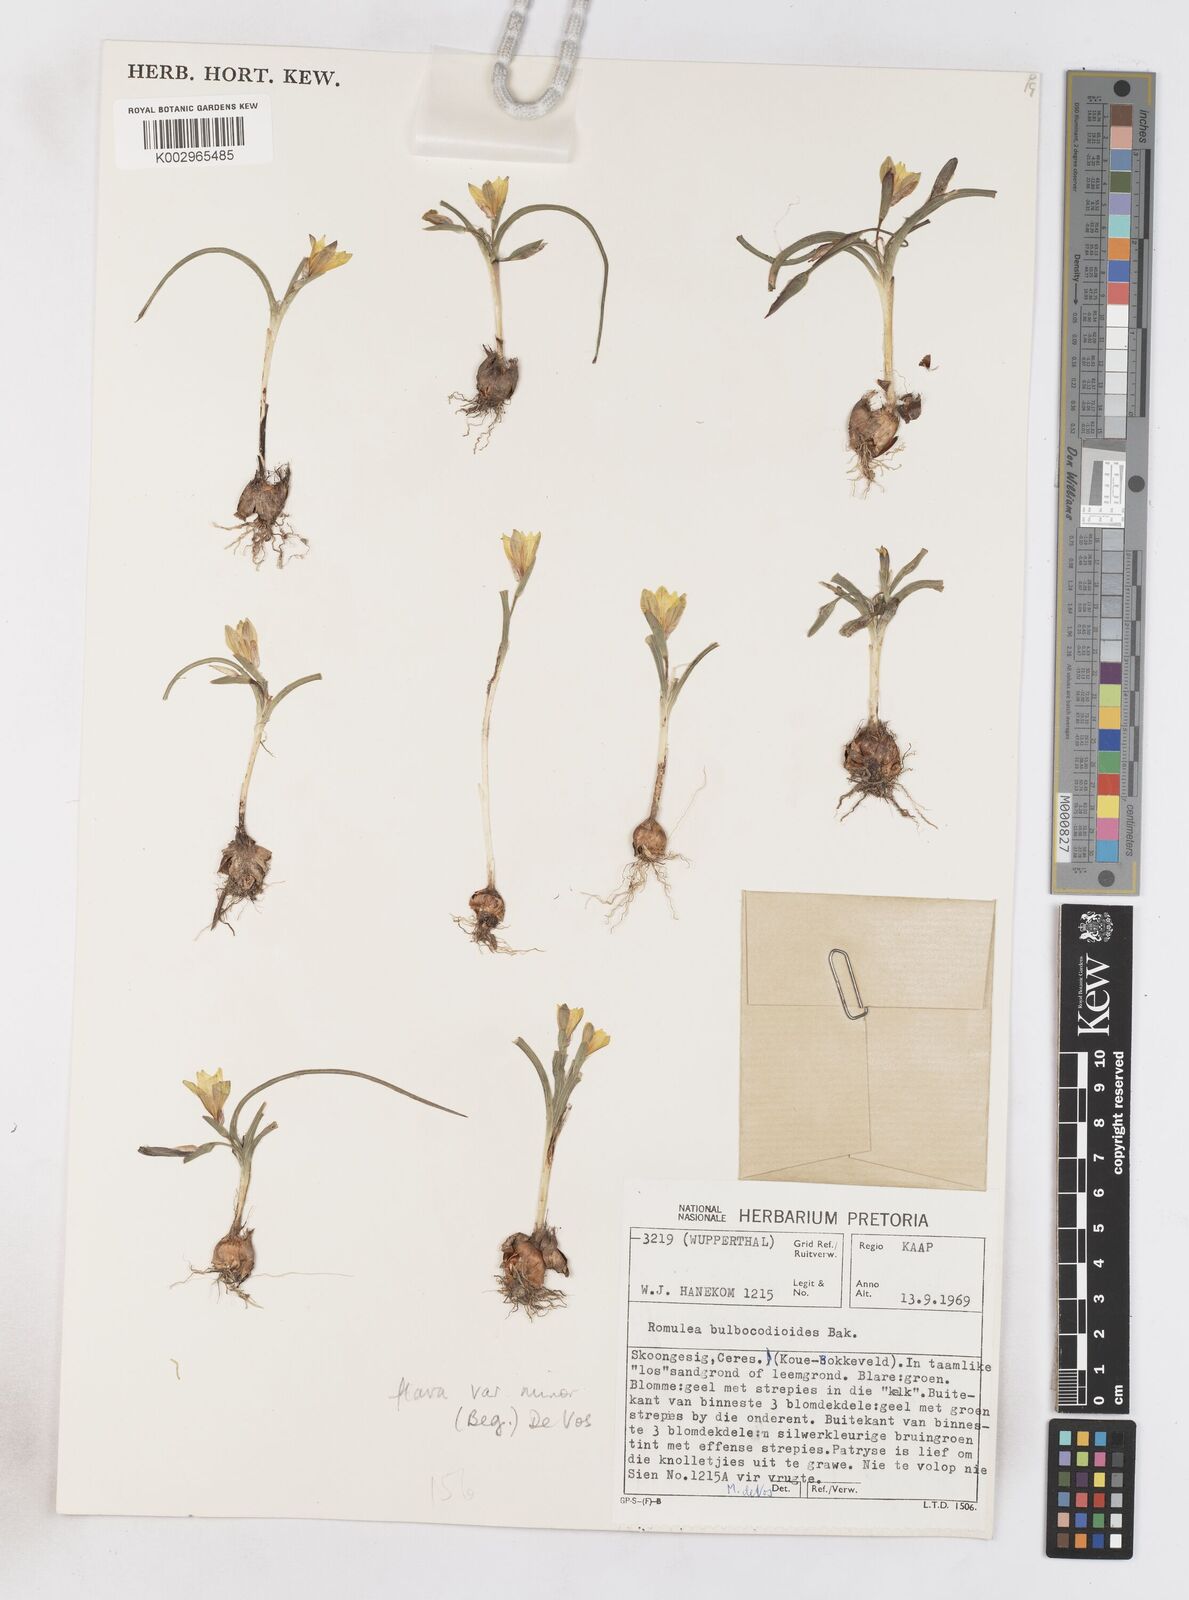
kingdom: Plantae
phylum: Tracheophyta
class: Liliopsida
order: Asparagales
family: Iridaceae
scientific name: Iridaceae
